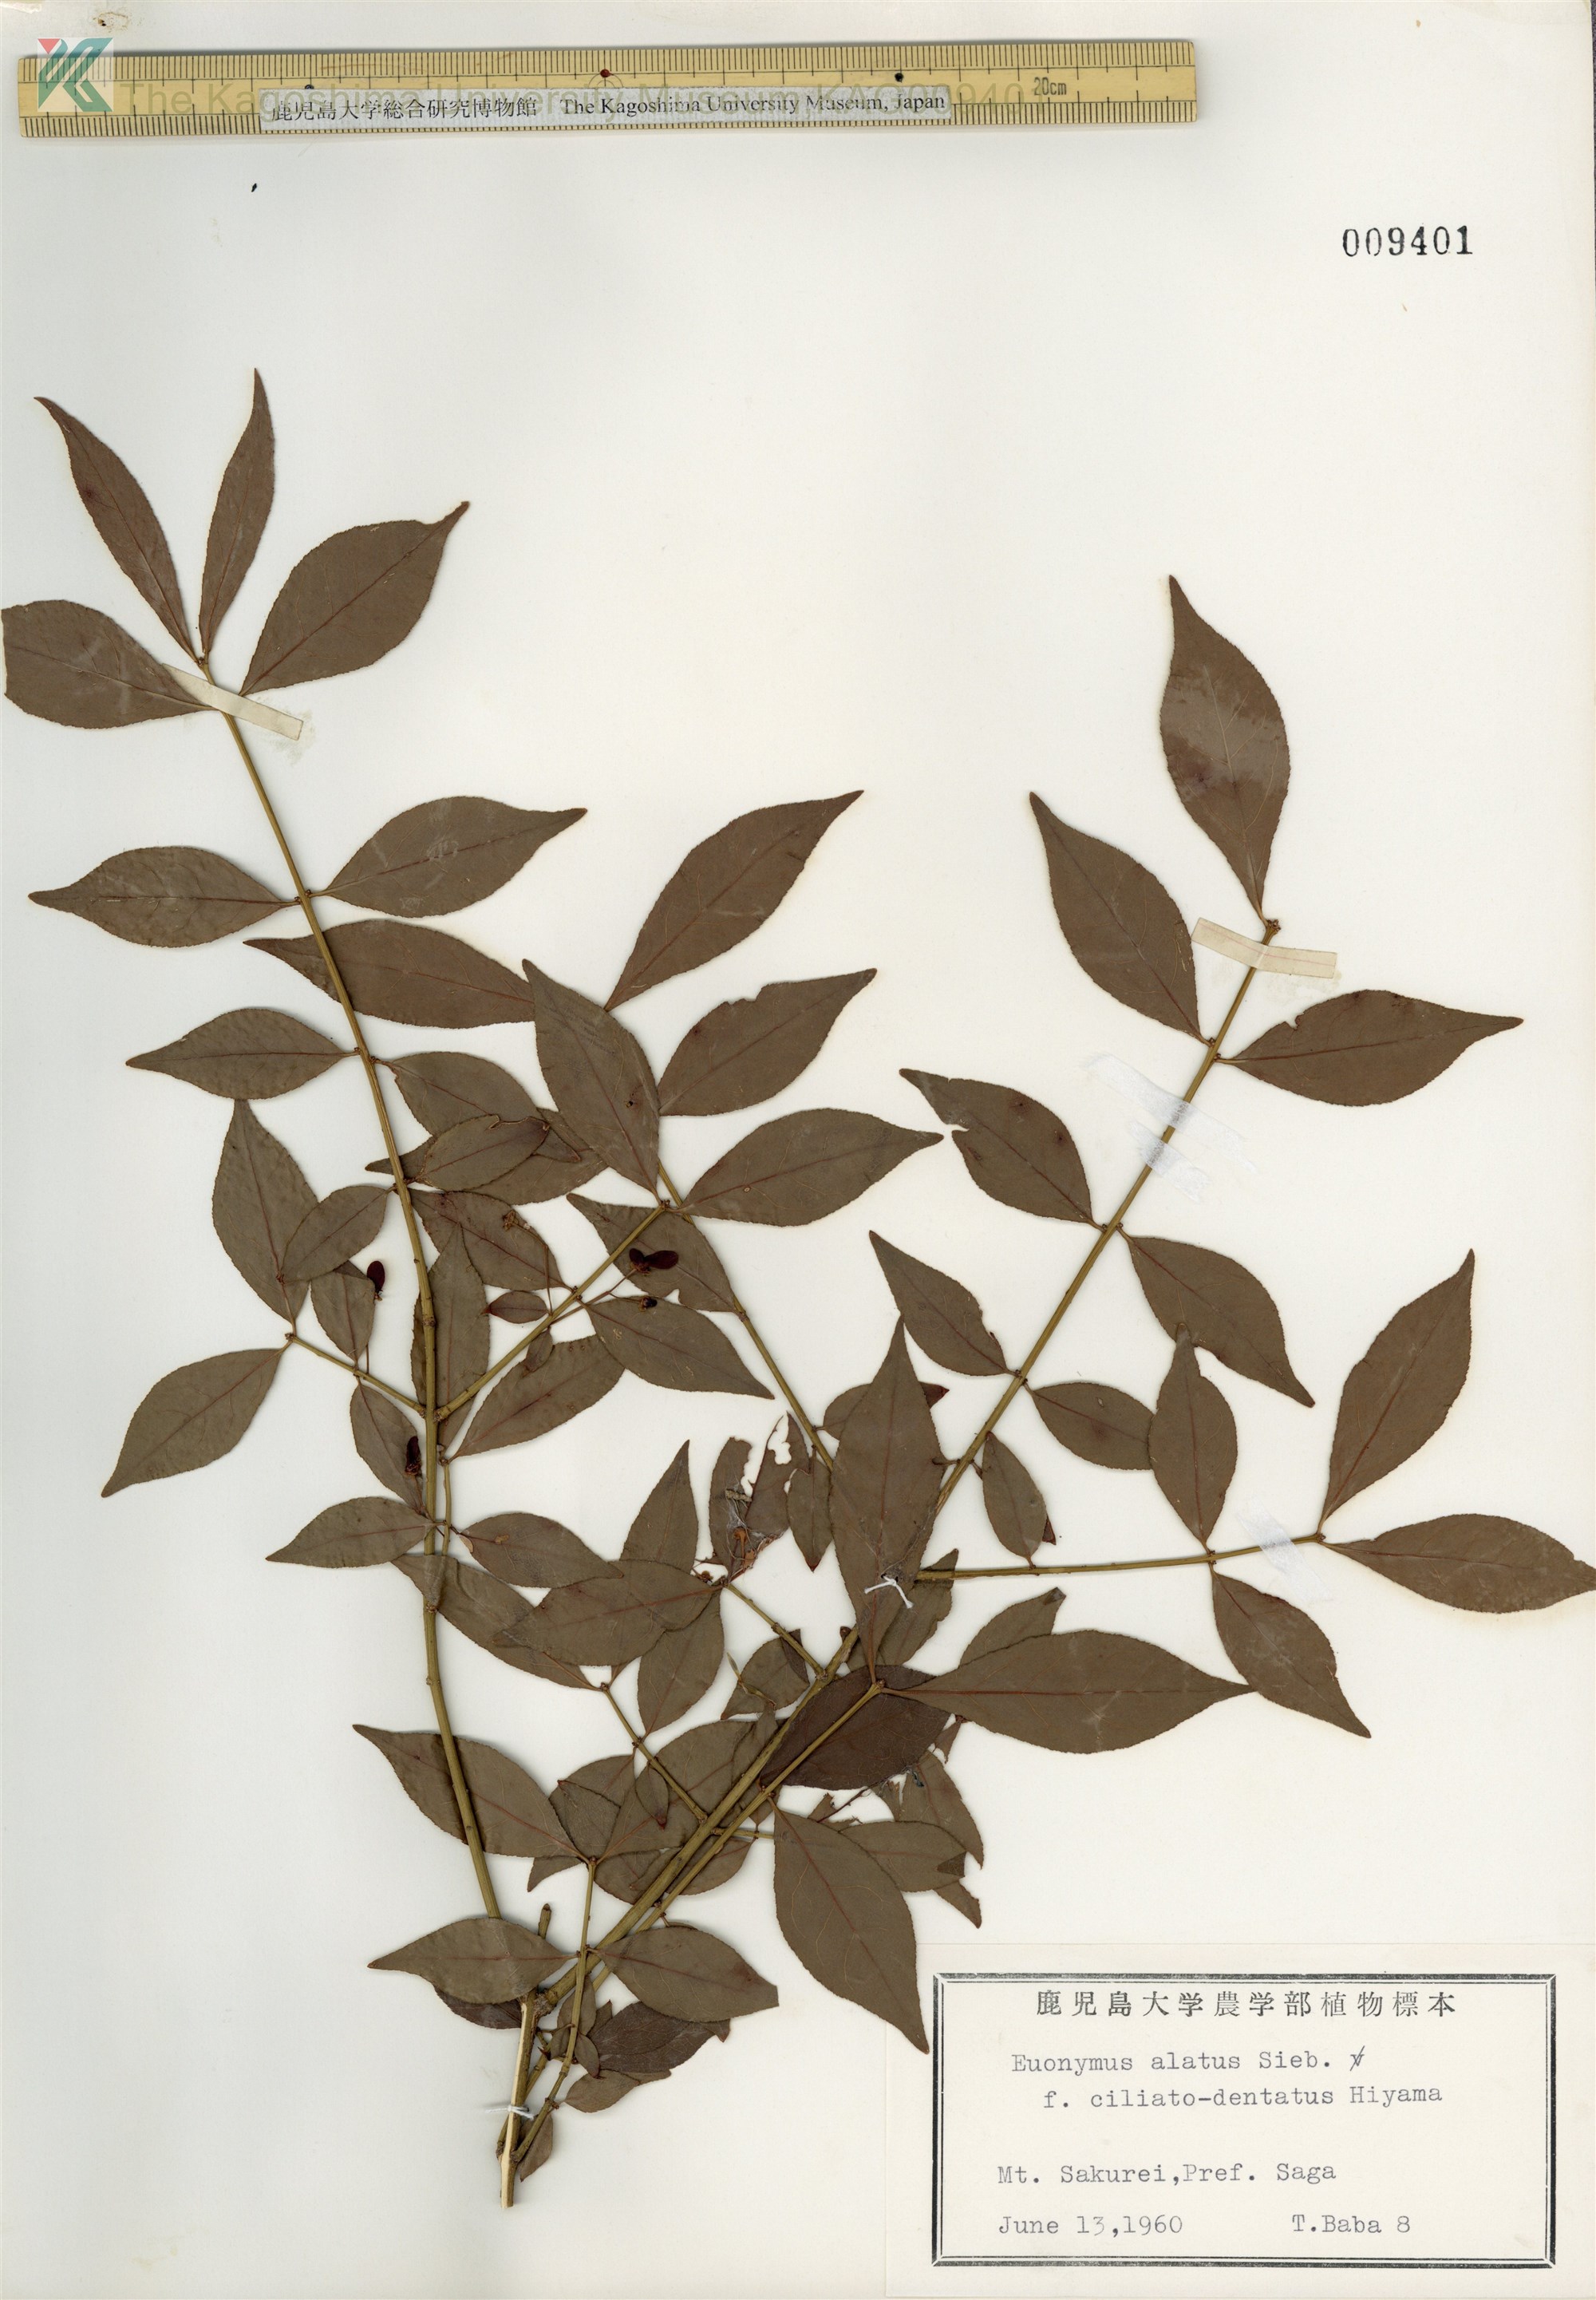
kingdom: Plantae
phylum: Tracheophyta
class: Magnoliopsida
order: Celastrales
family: Celastraceae
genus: Euonymus
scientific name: Euonymus alatus
